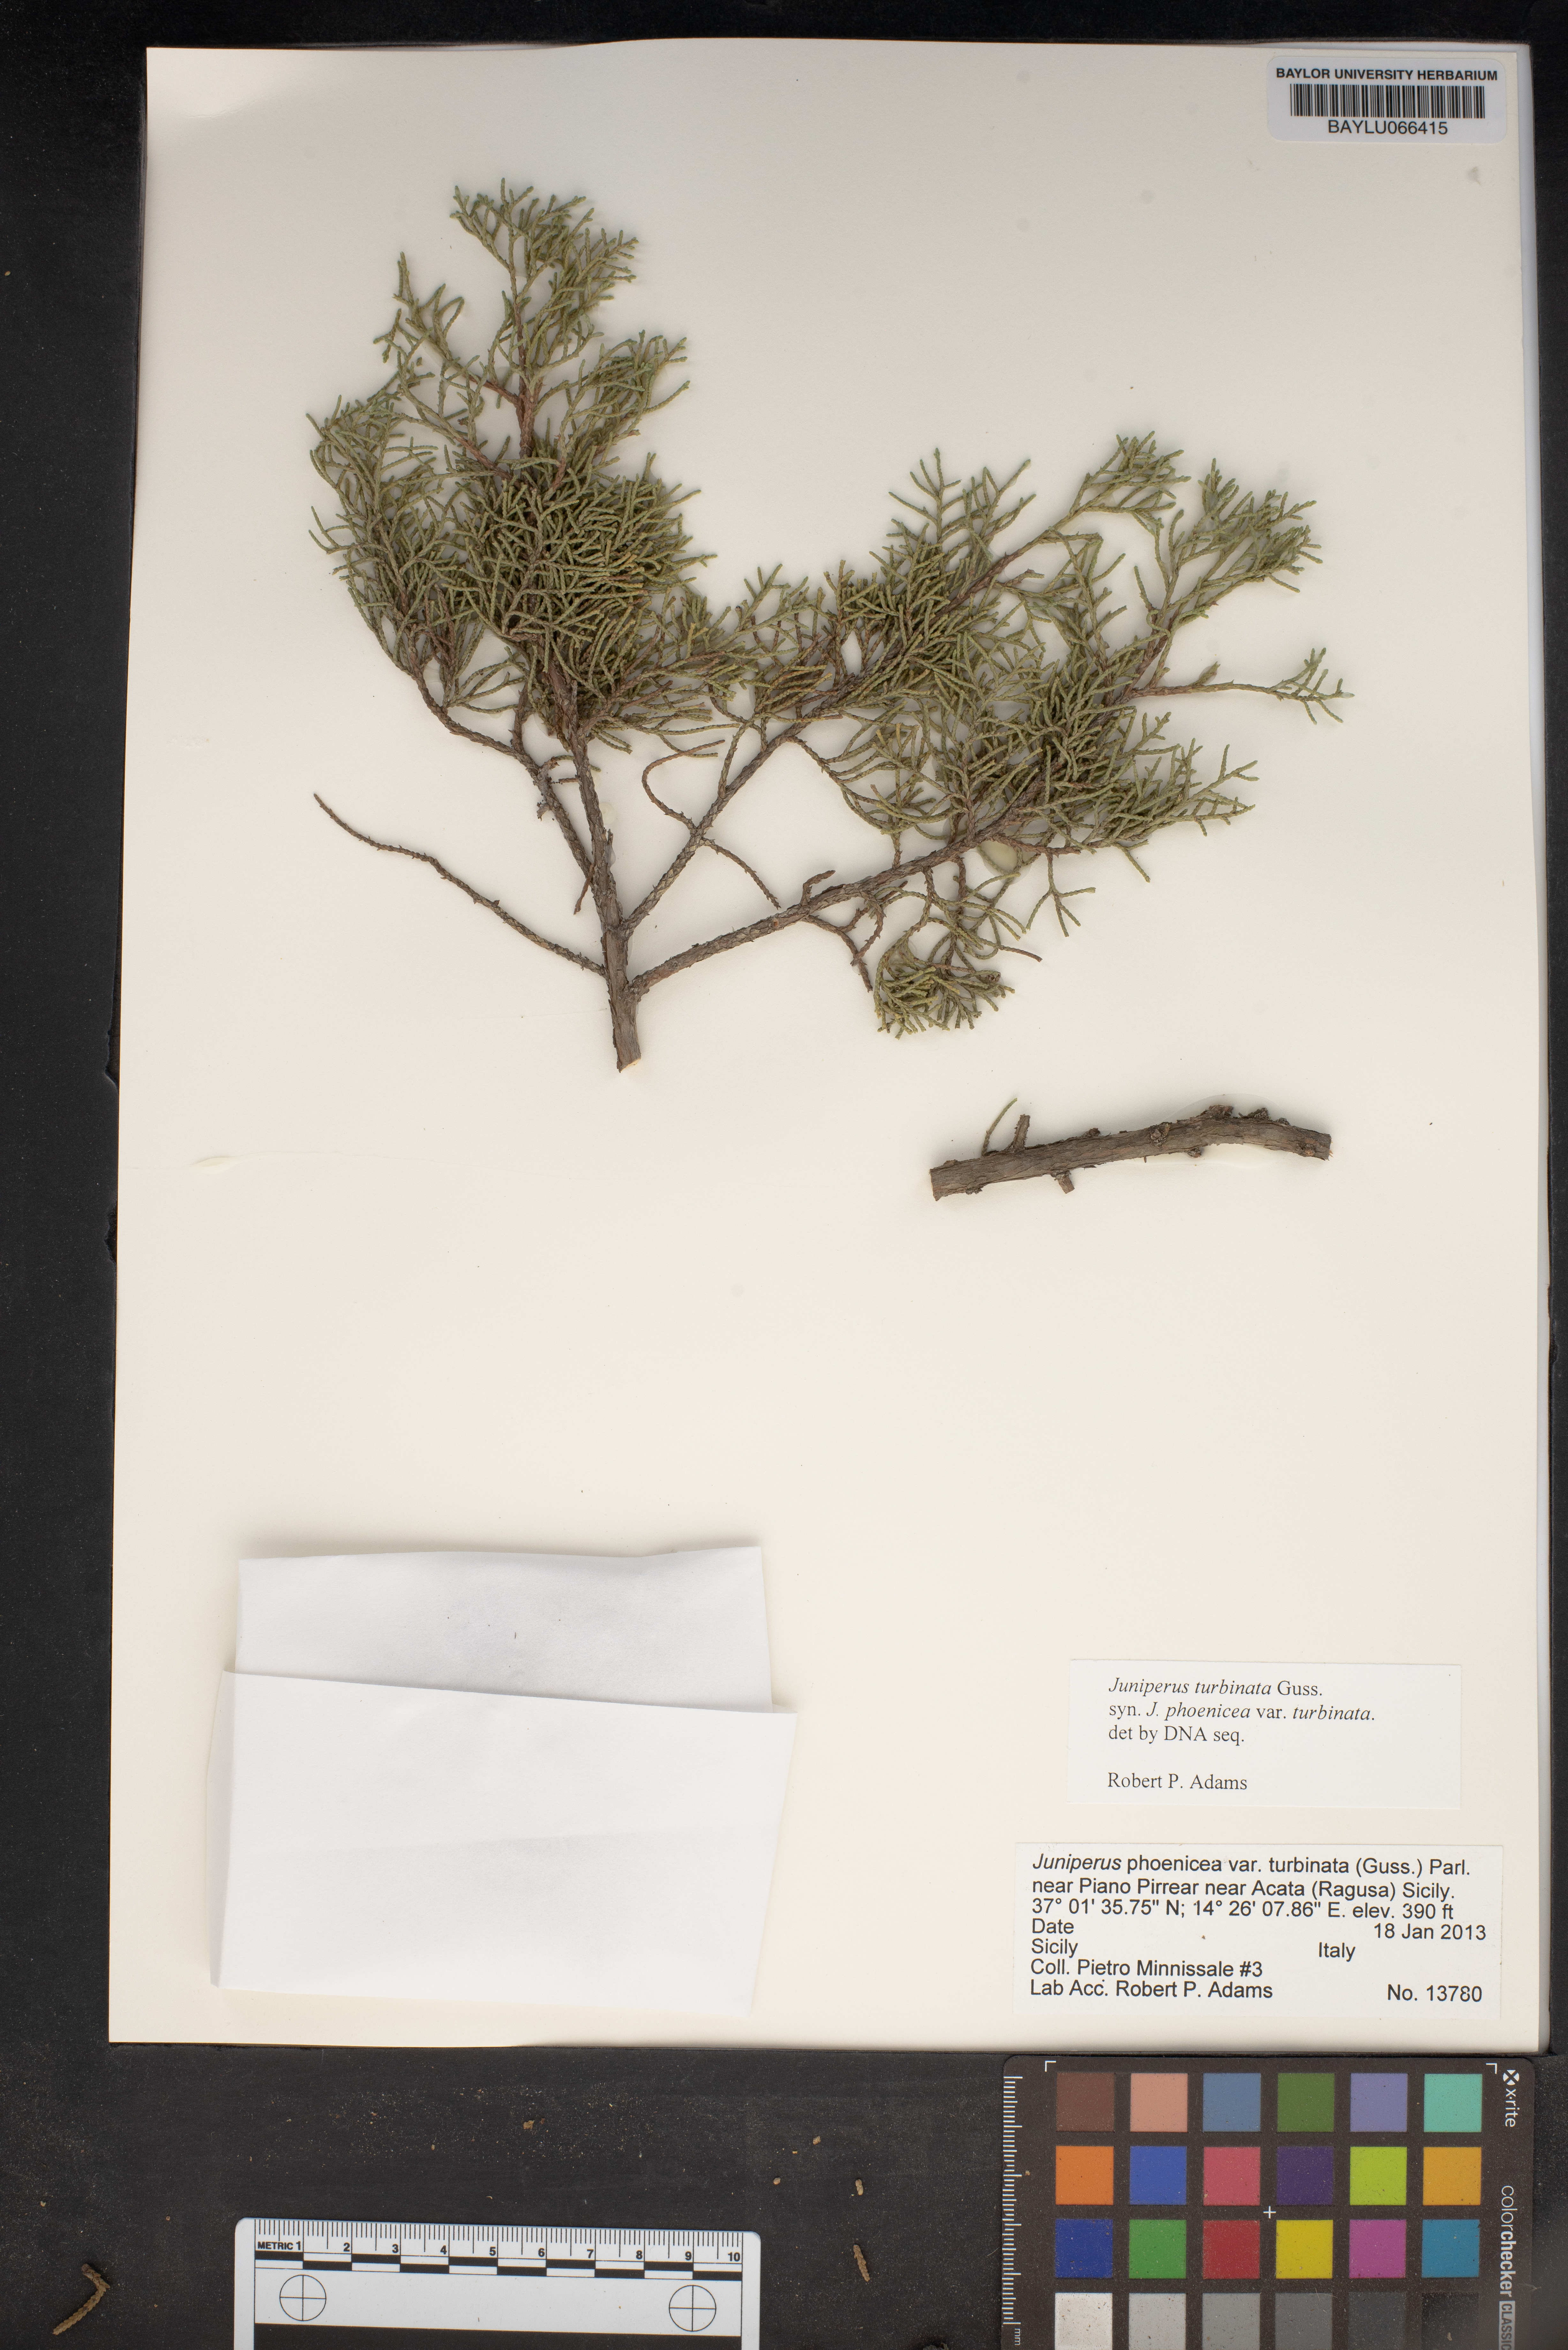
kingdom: Plantae
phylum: Tracheophyta
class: Pinopsida
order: Pinales
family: Cupressaceae
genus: Juniperus
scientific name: Juniperus phoenicea
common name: Phoenician juniper
